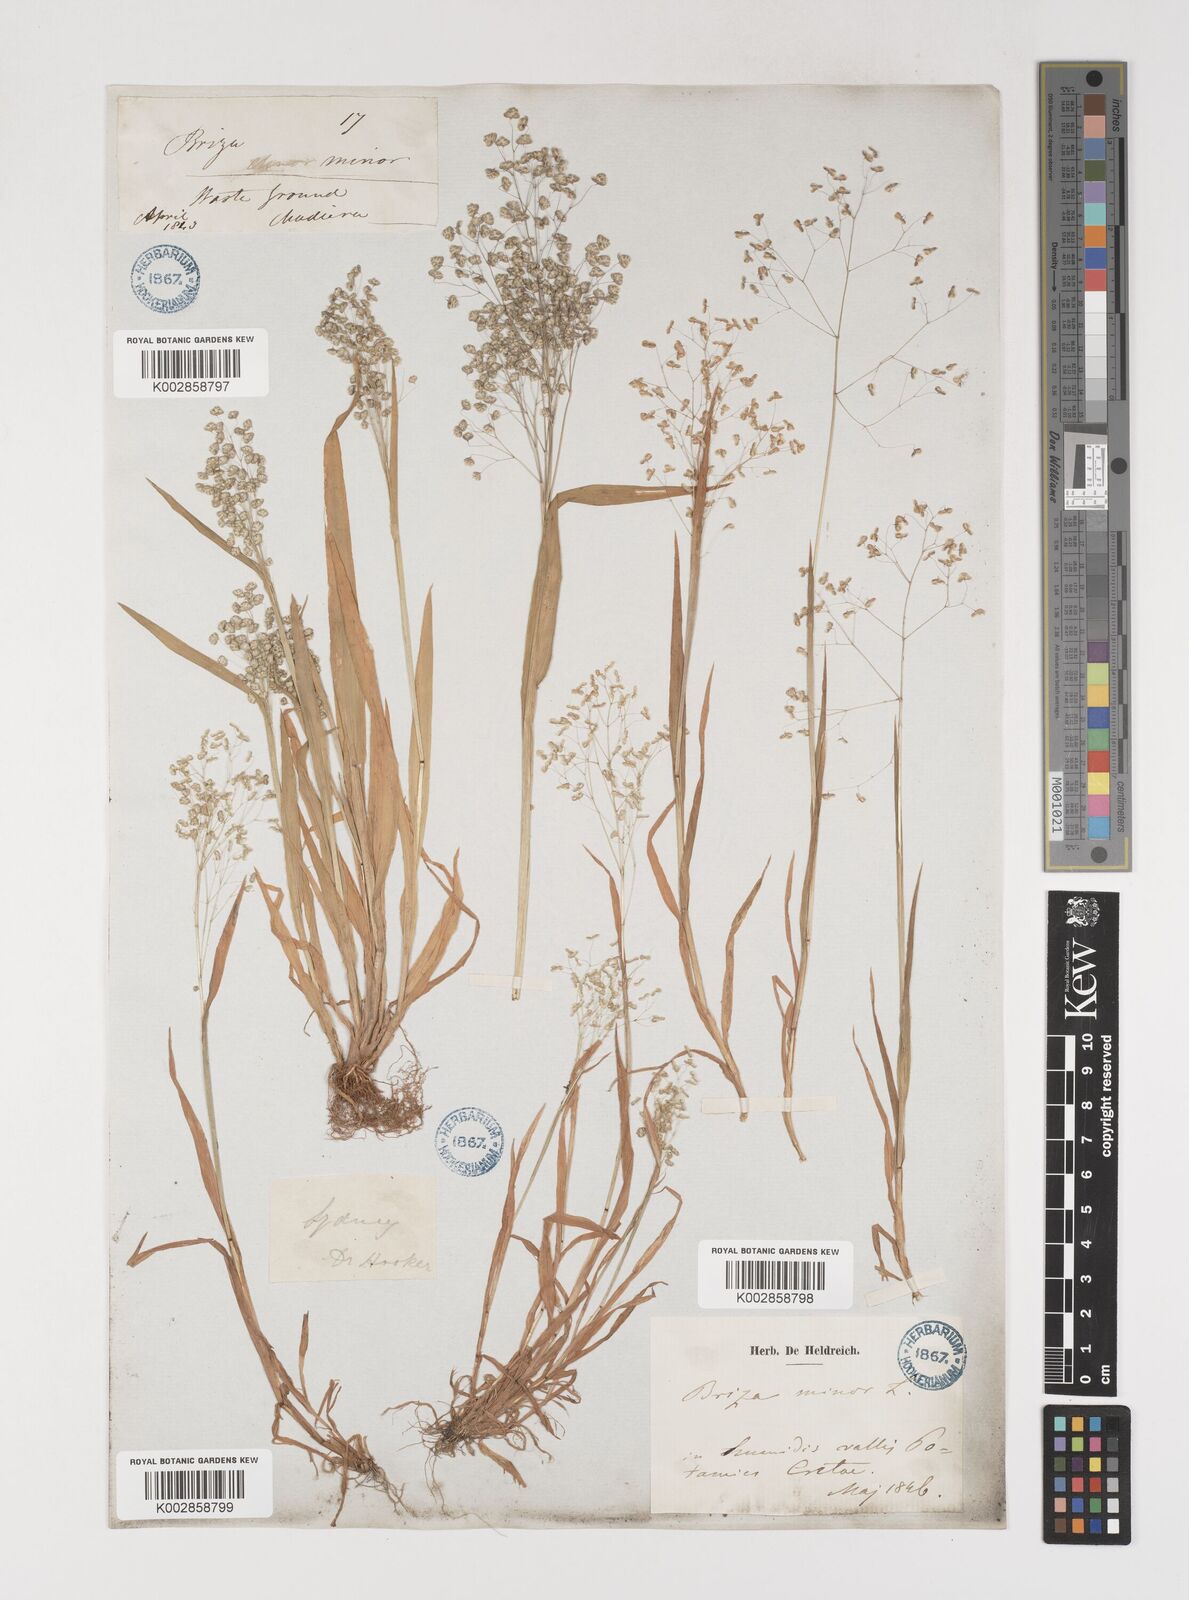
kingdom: Plantae
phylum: Tracheophyta
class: Liliopsida
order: Poales
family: Poaceae
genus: Briza
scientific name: Briza minor
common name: Lesser quaking-grass
